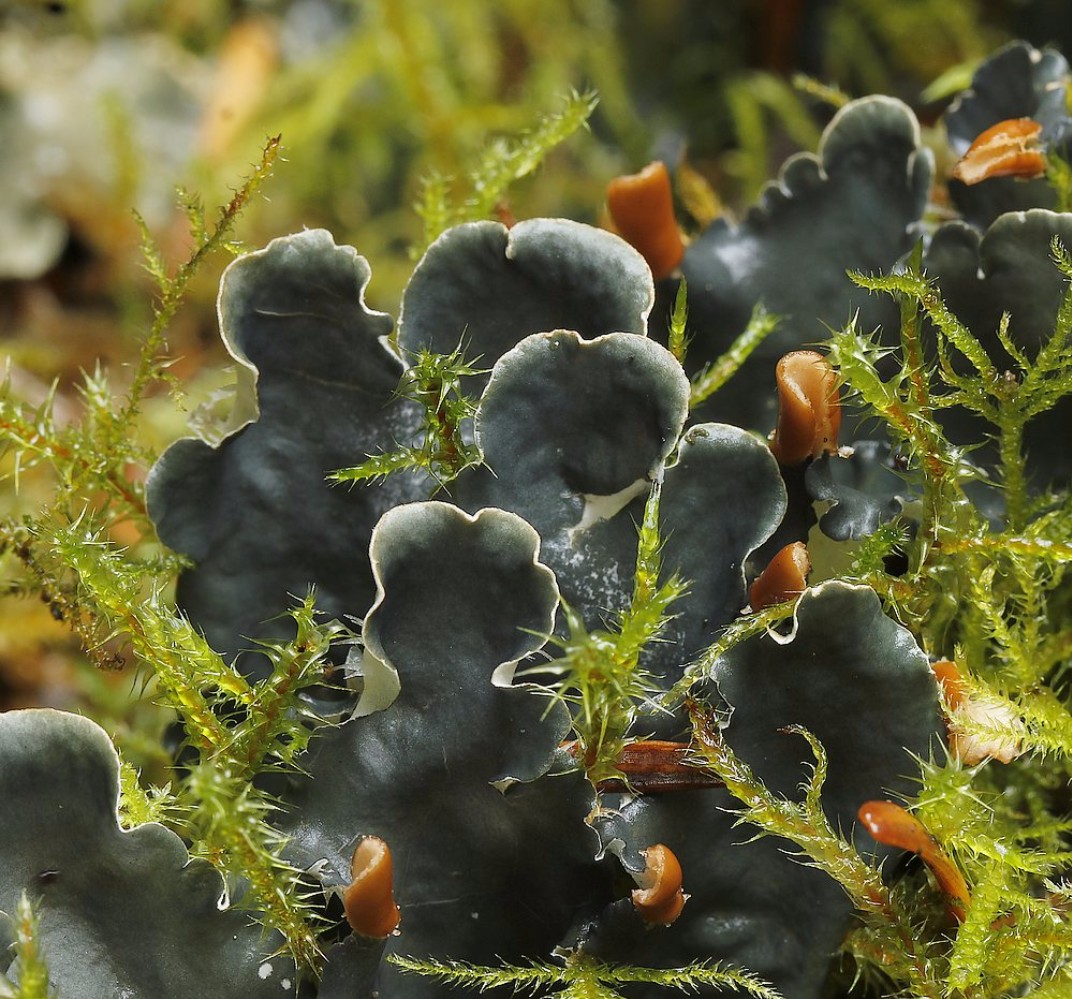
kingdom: Fungi
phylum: Ascomycota
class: Lecanoromycetes
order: Peltigerales
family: Peltigeraceae
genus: Peltigera
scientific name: Peltigera hymenina
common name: hinde-skjoldlav
